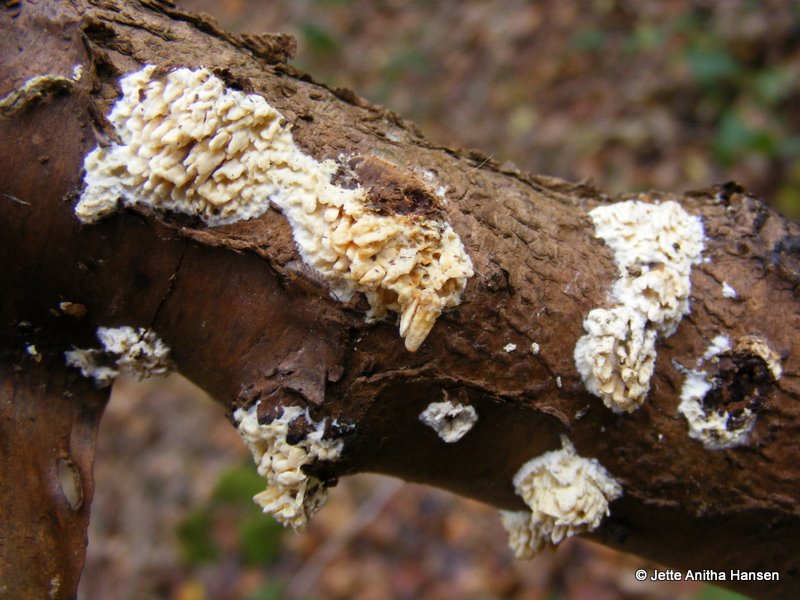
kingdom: Fungi
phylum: Basidiomycota
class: Agaricomycetes
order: Hymenochaetales
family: Schizoporaceae
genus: Xylodon
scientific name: Xylodon radula
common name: grovtandet kalkskind
